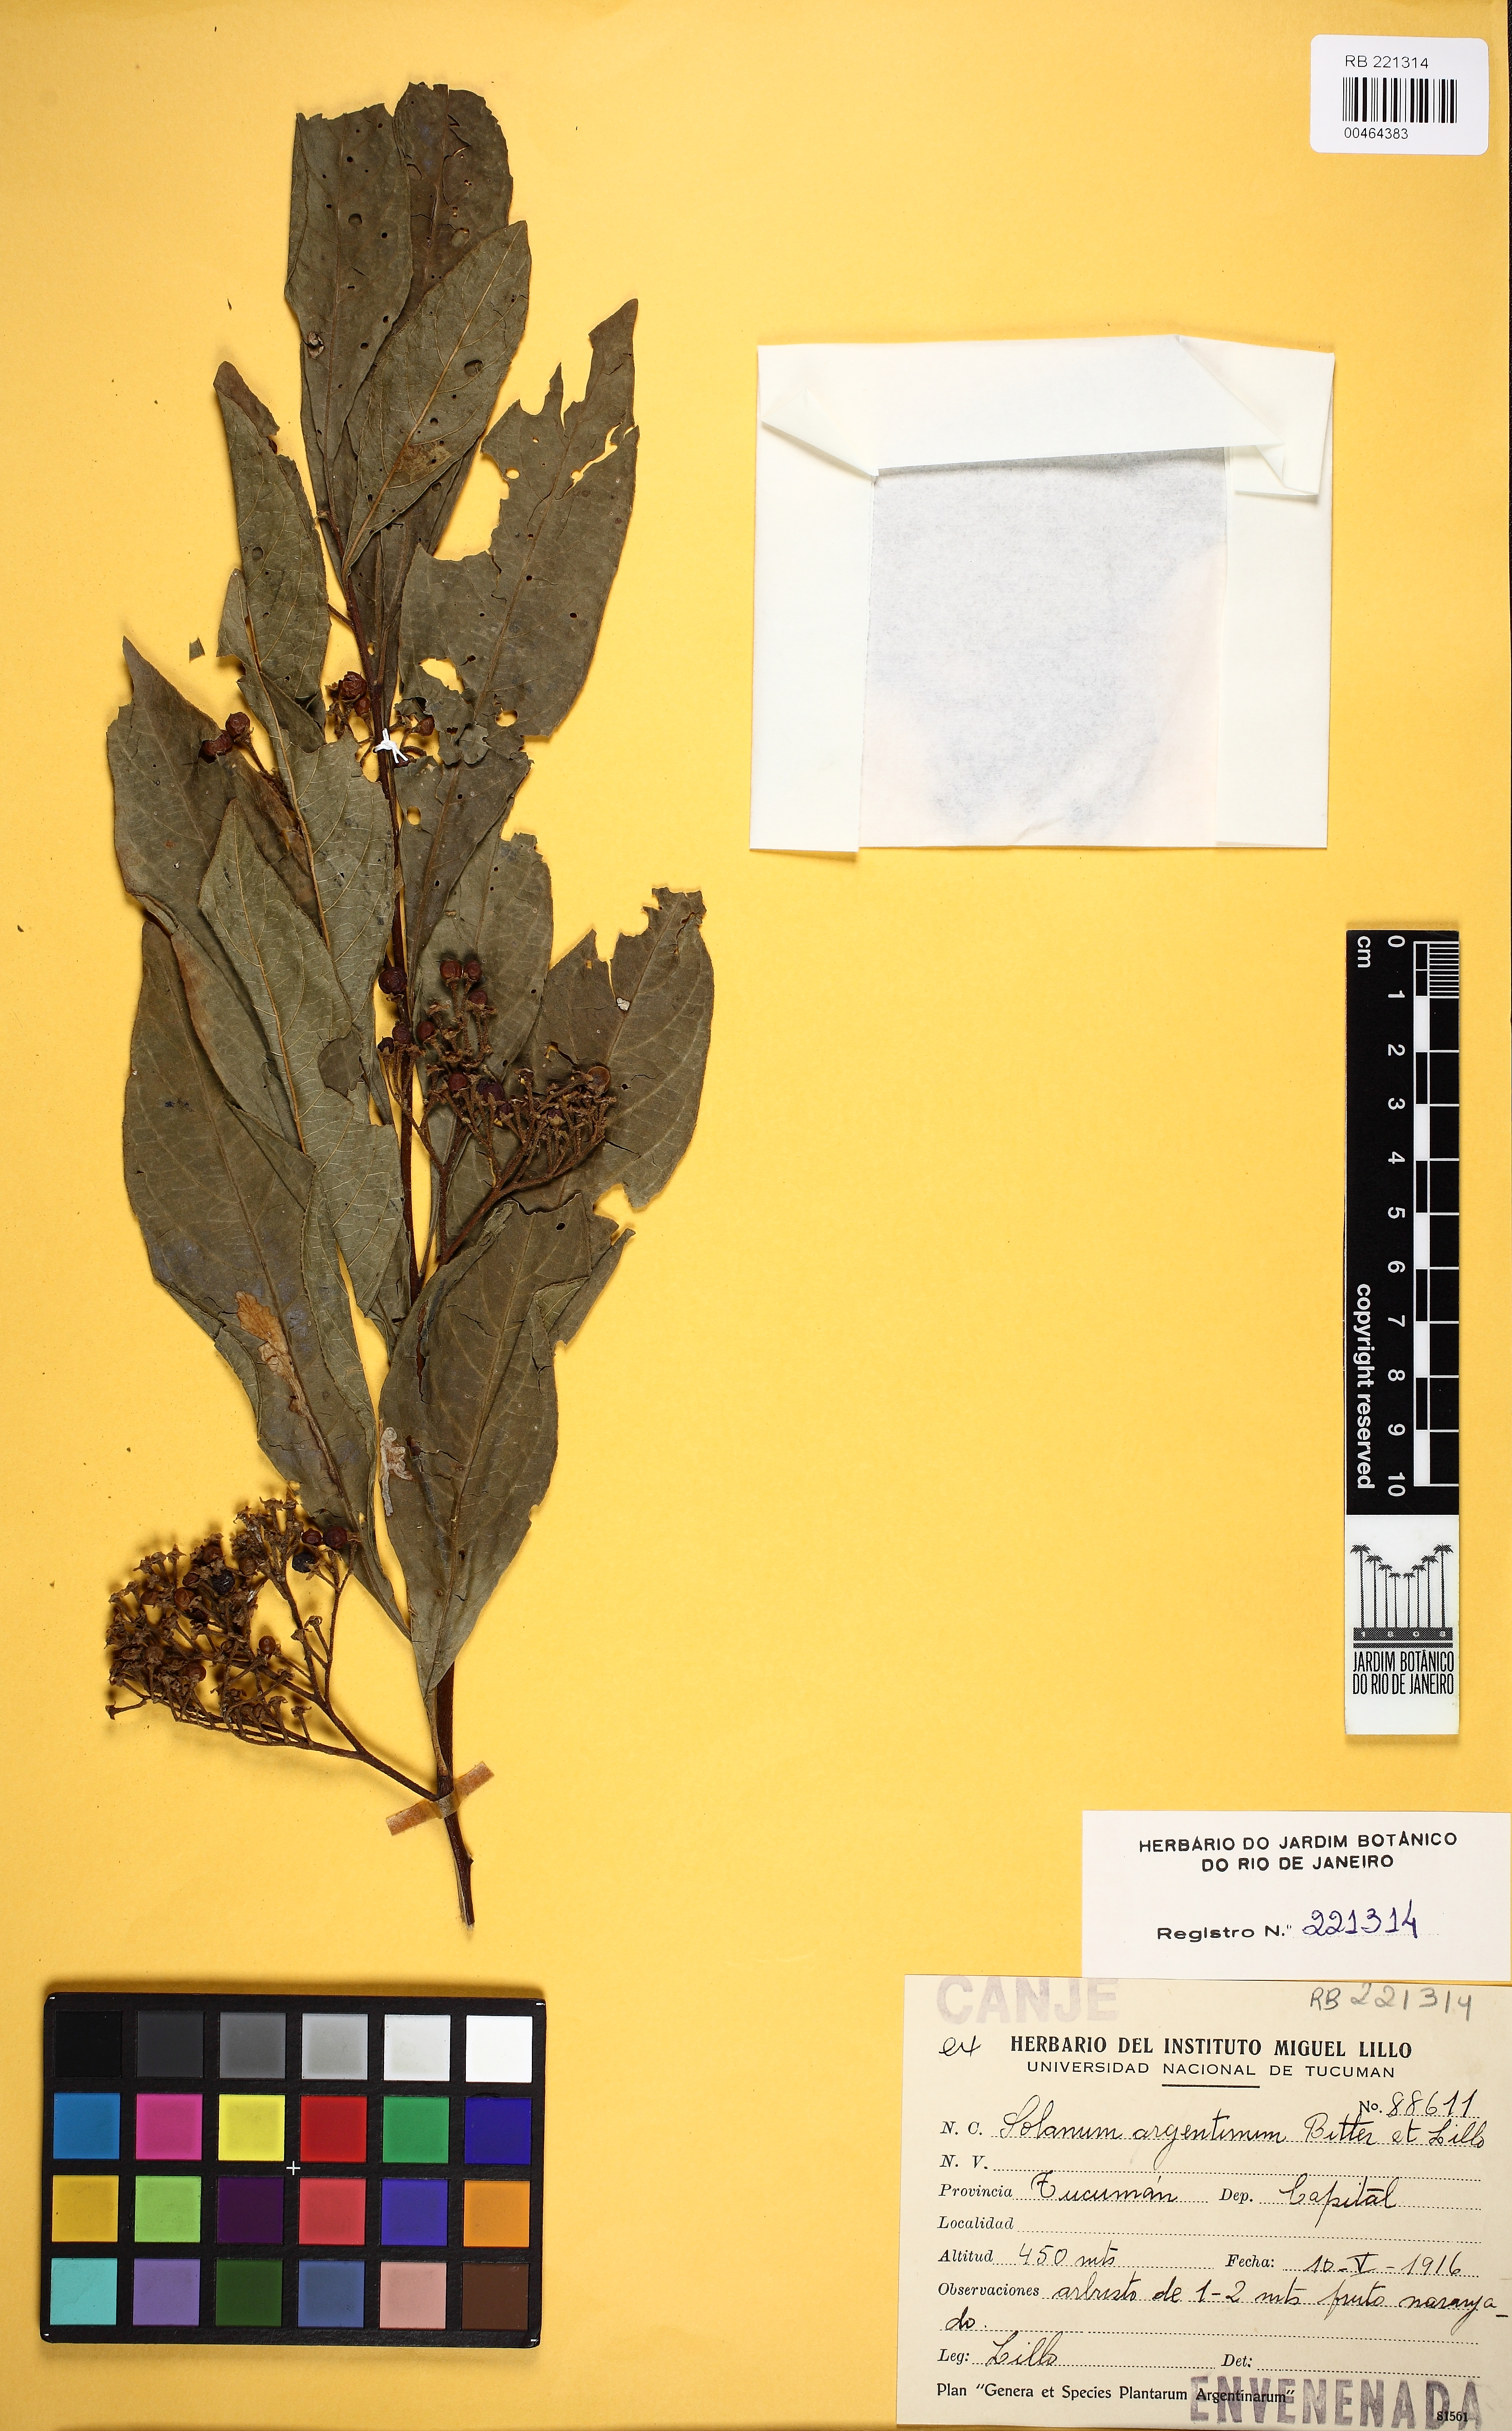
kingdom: Plantae
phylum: Tracheophyta
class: Magnoliopsida
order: Solanales
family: Solanaceae
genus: Solanum
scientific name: Solanum argentinum
